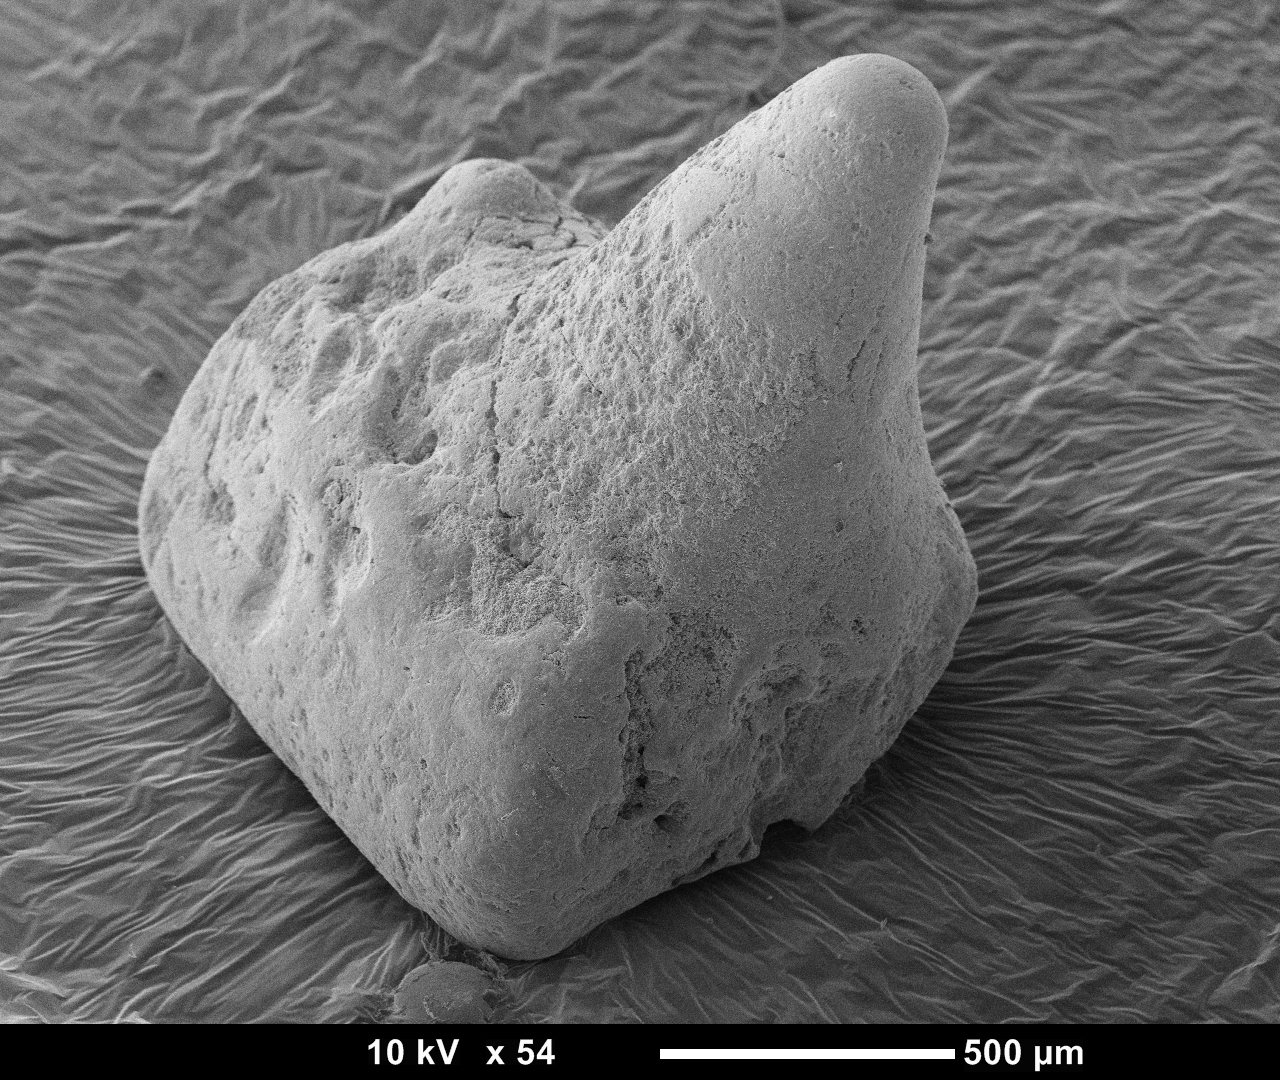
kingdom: Animalia
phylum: Chordata
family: Kuehneosauridae
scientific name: Kuehneosauridae
